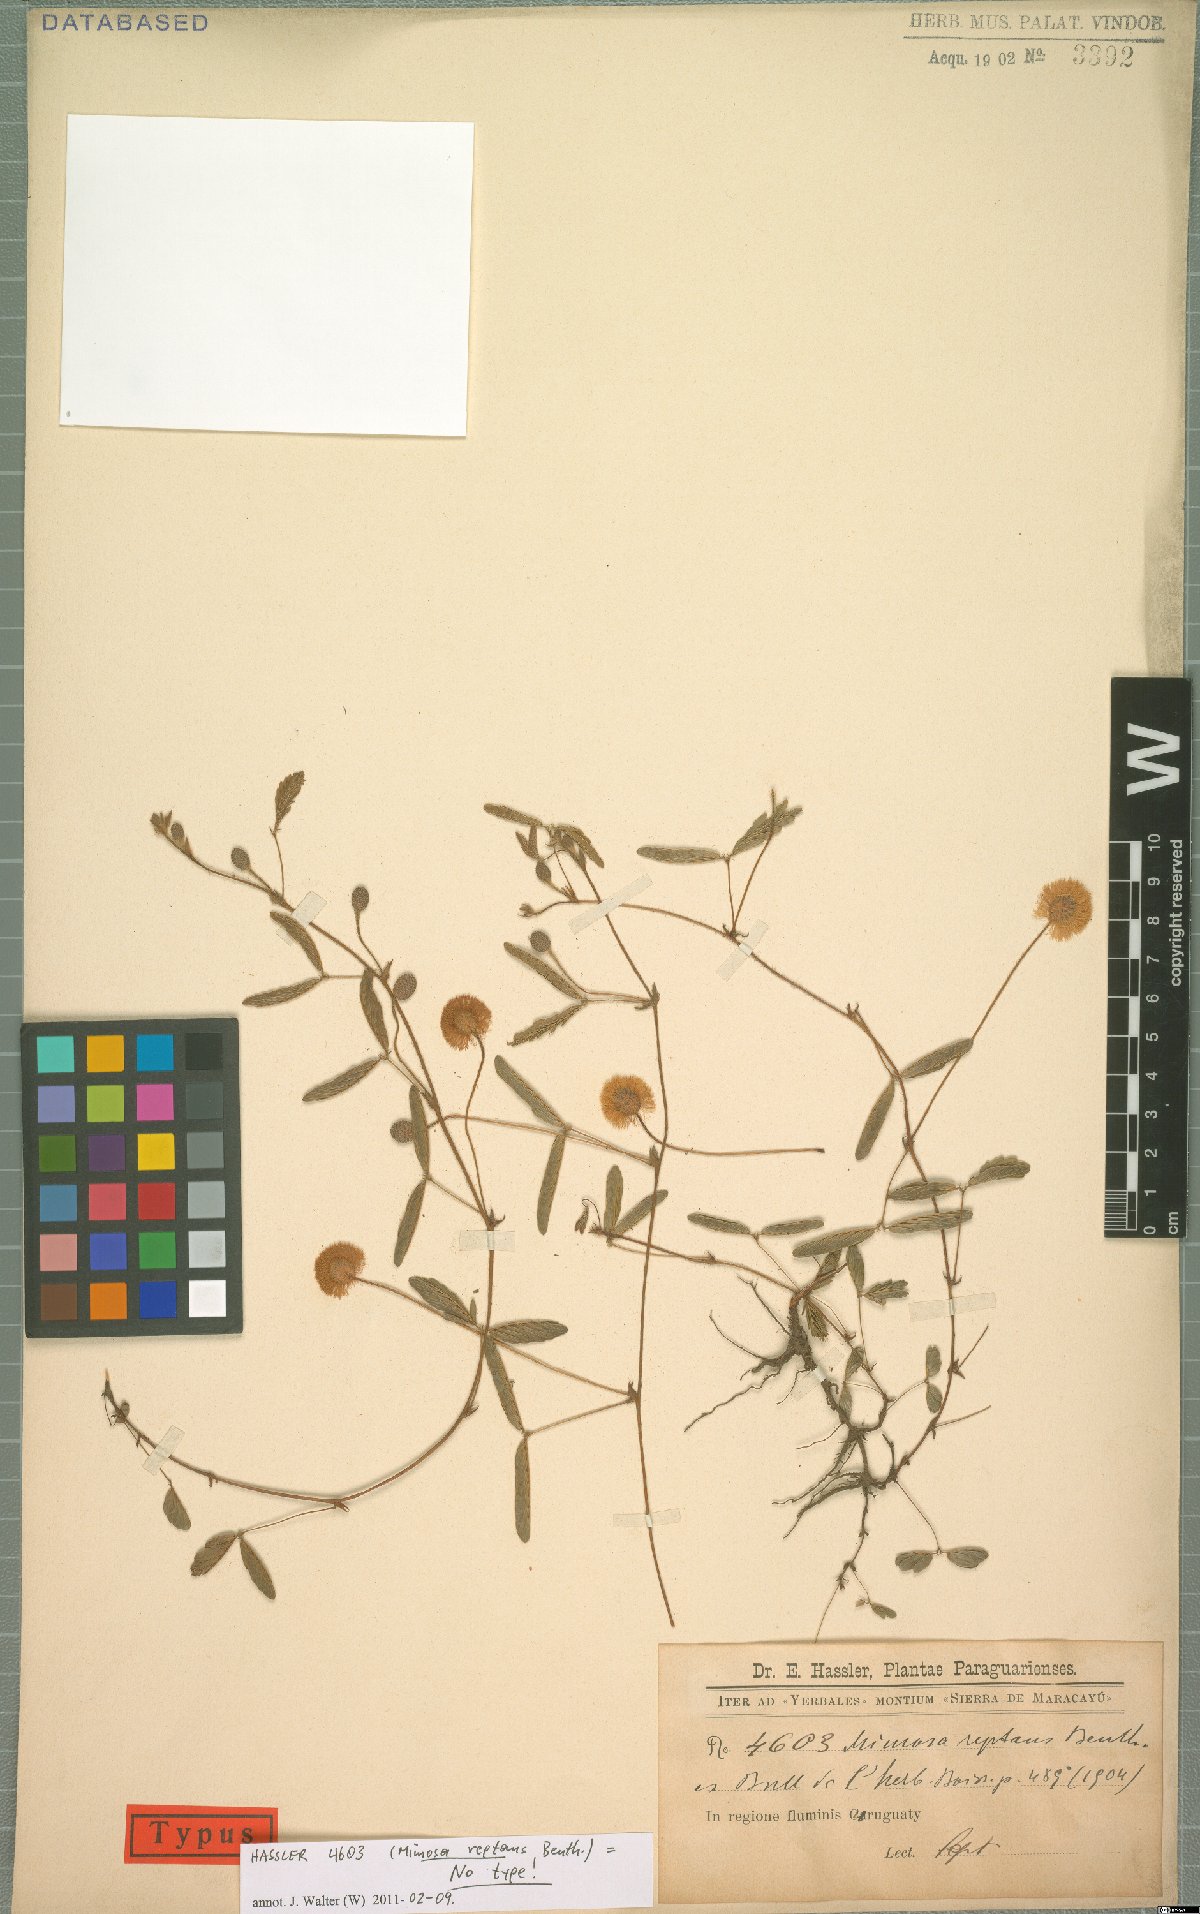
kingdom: Plantae
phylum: Tracheophyta
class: Magnoliopsida
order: Fabales
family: Fabaceae
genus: Mimosa
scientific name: Mimosa reptans
